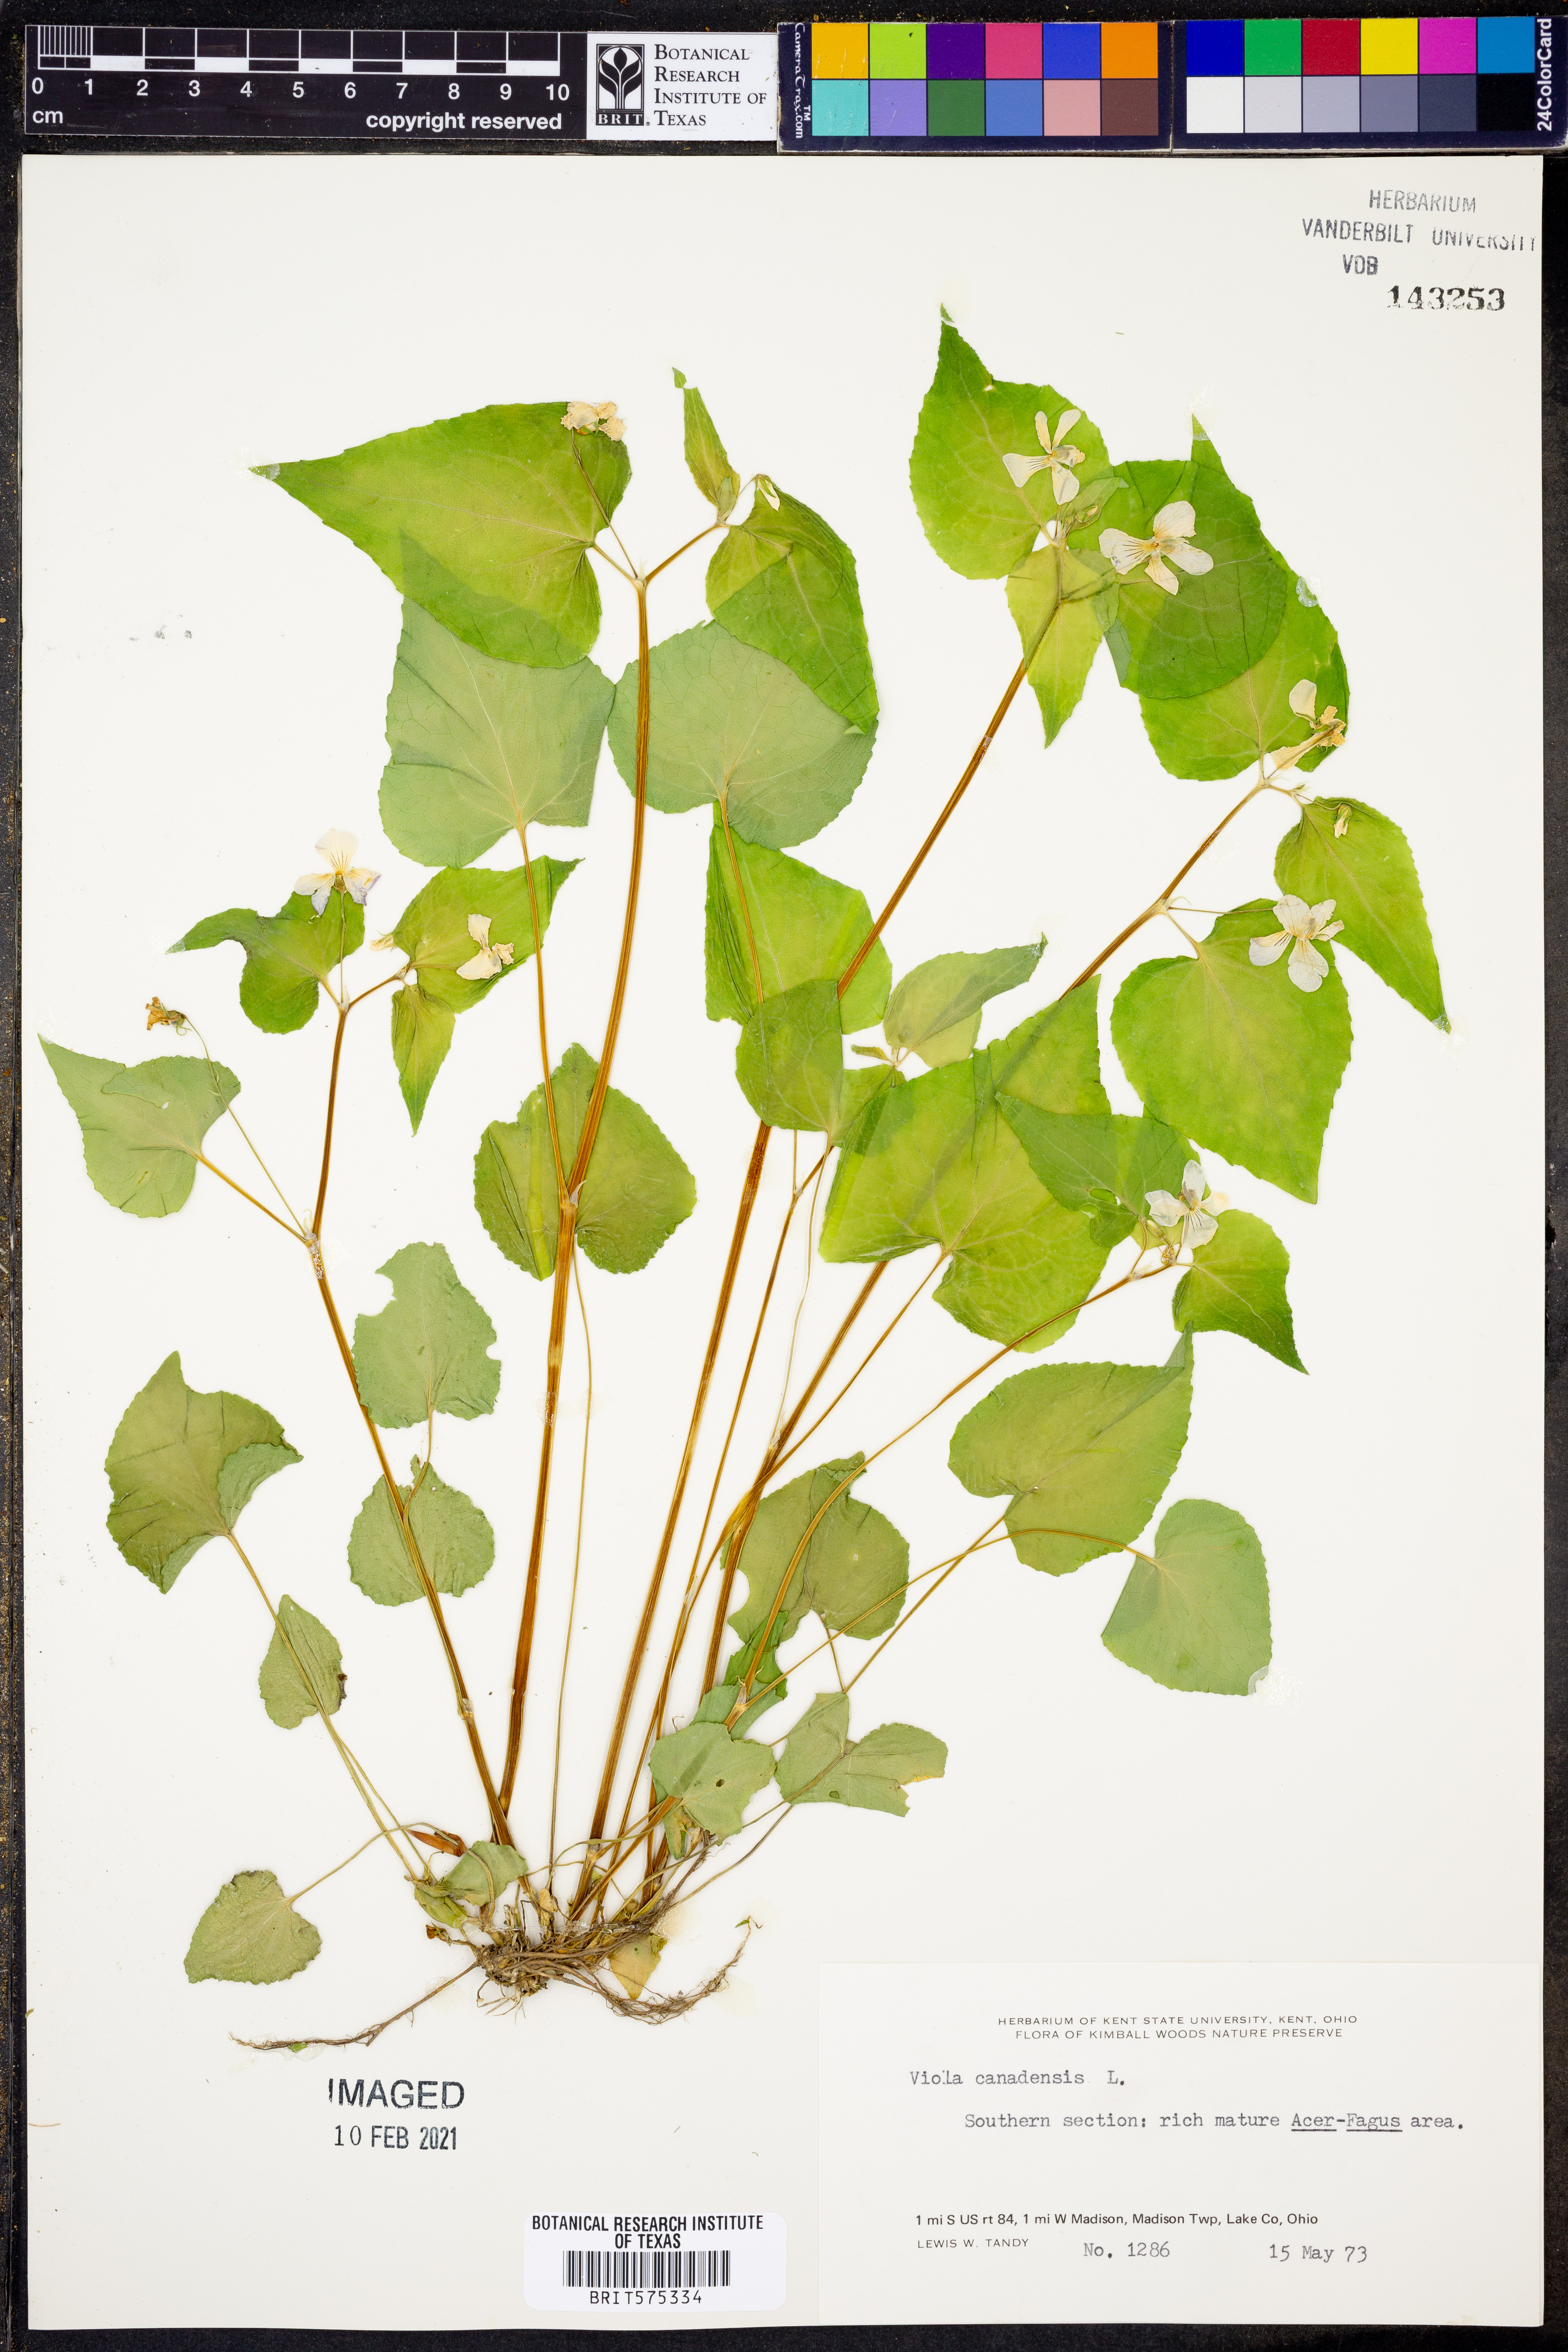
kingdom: Plantae
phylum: Tracheophyta
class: Magnoliopsida
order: Malpighiales
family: Violaceae
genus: Viola
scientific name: Viola canadensis
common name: Canada violet
